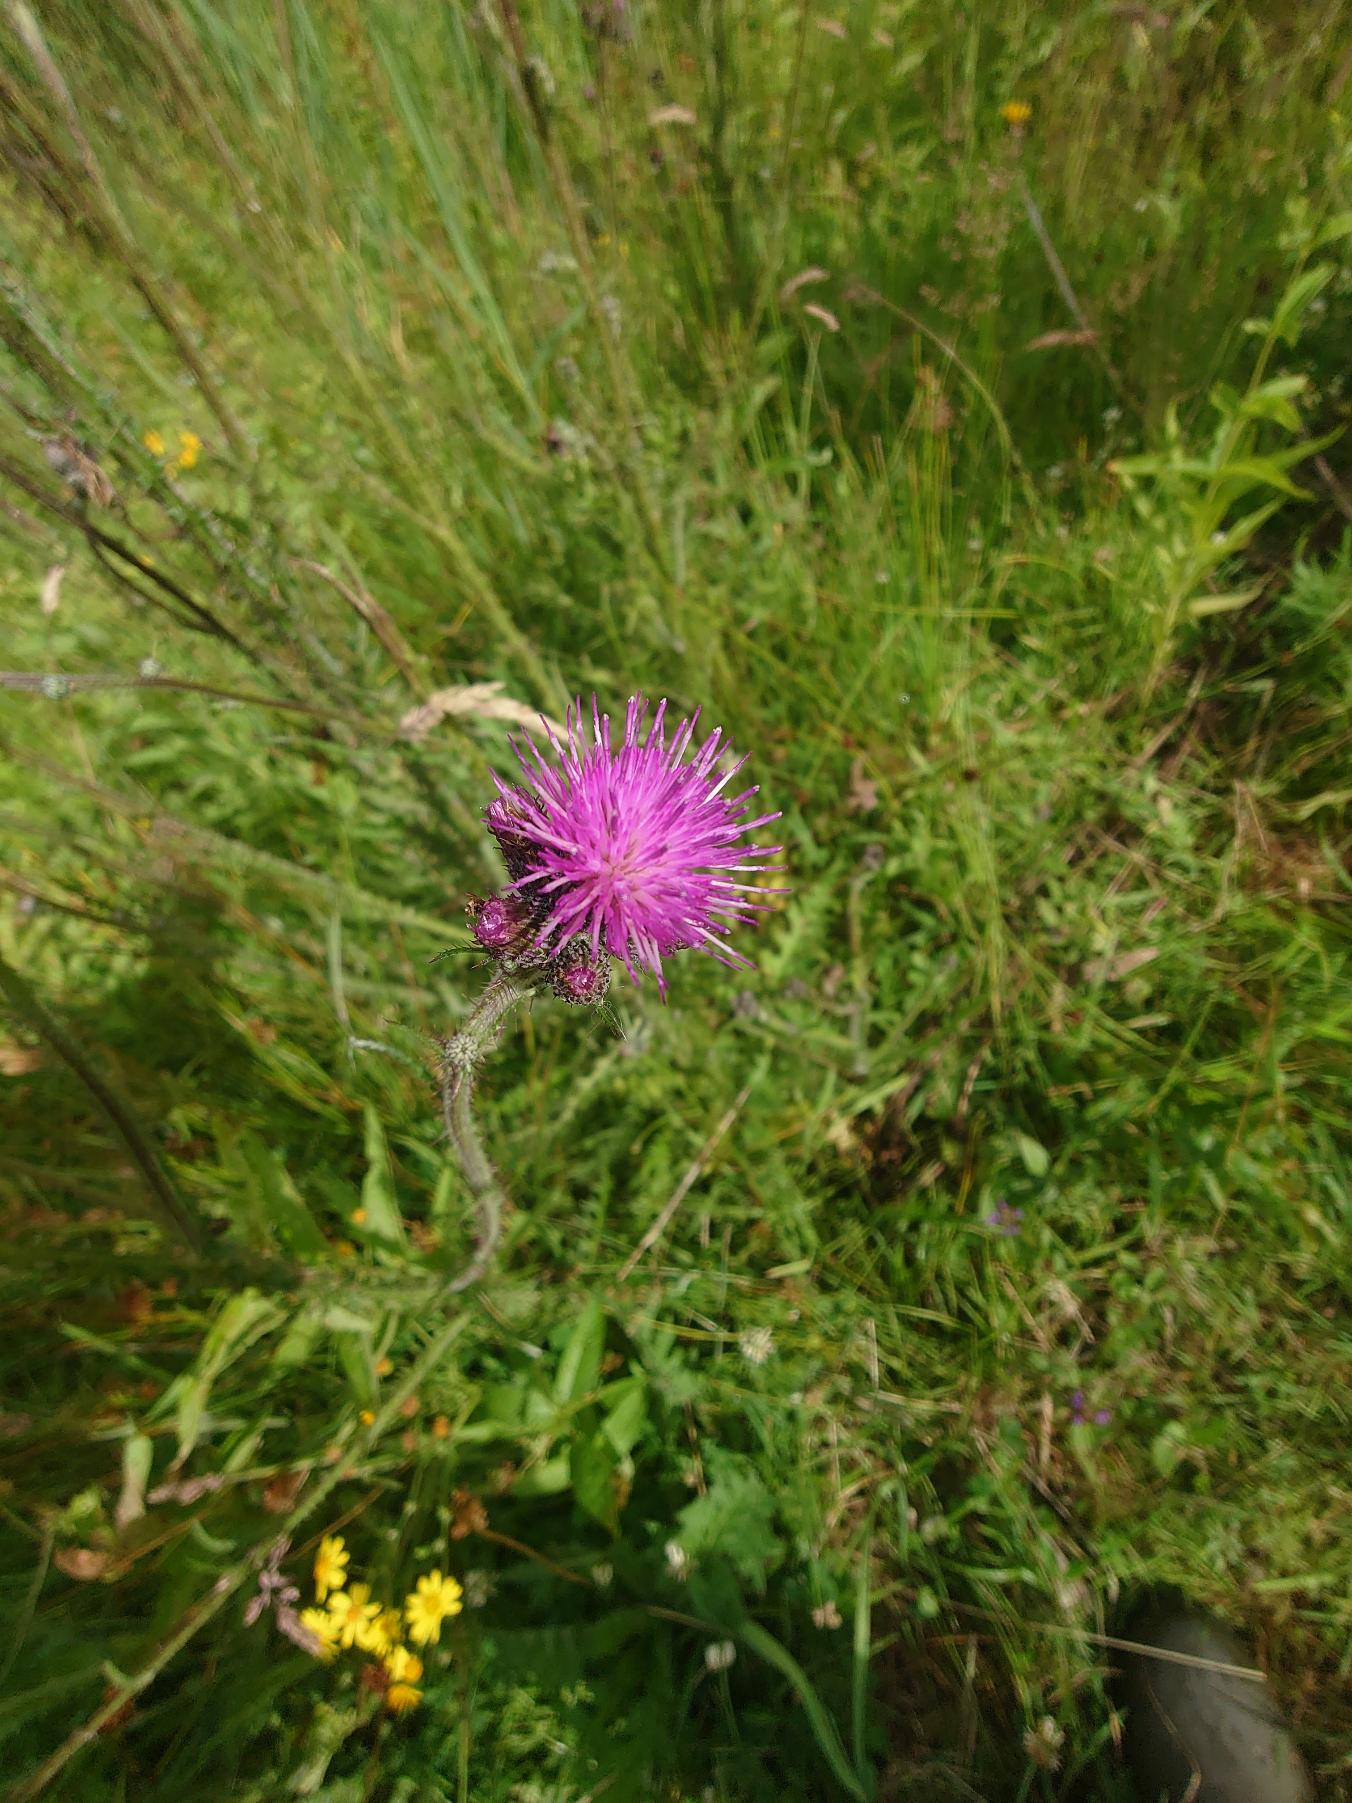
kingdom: Plantae
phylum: Tracheophyta
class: Magnoliopsida
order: Asterales
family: Asteraceae
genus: Cirsium
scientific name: Cirsium palustre
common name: Kær-tidsel
